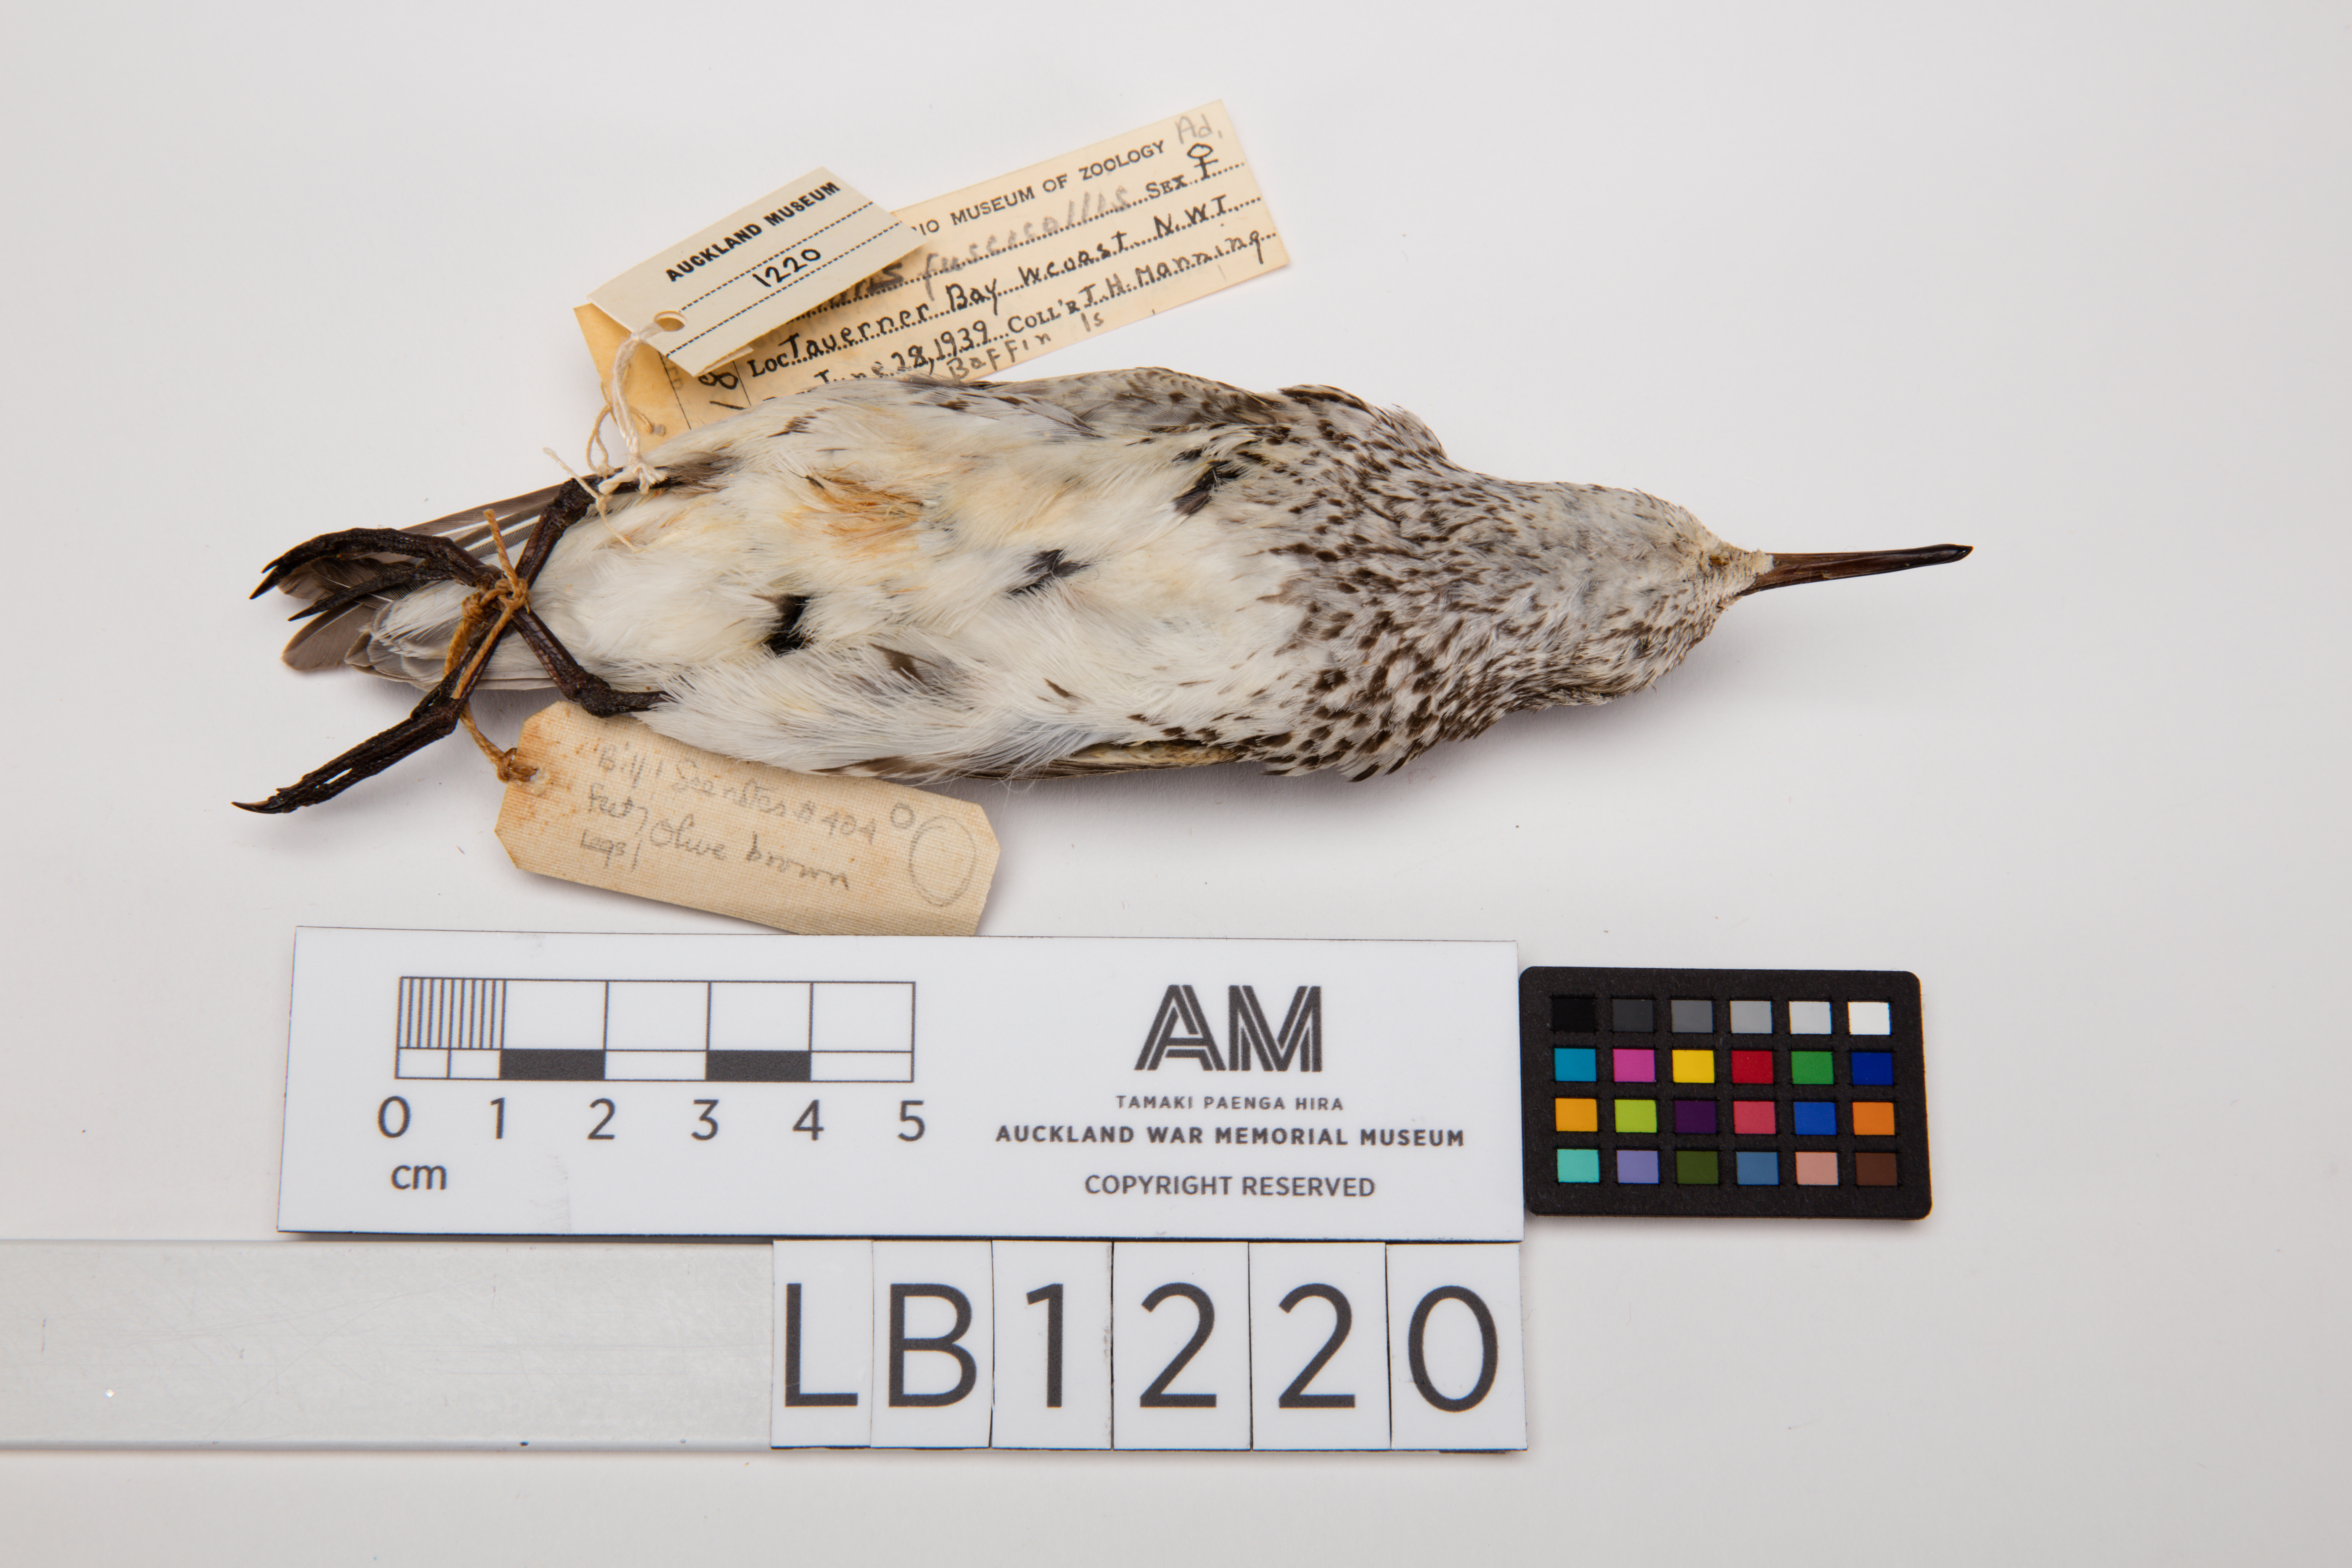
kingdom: Animalia
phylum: Chordata
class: Aves
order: Charadriiformes
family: Scolopacidae
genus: Calidris
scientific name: Calidris fuscicollis
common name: White-rumped sandpiper
